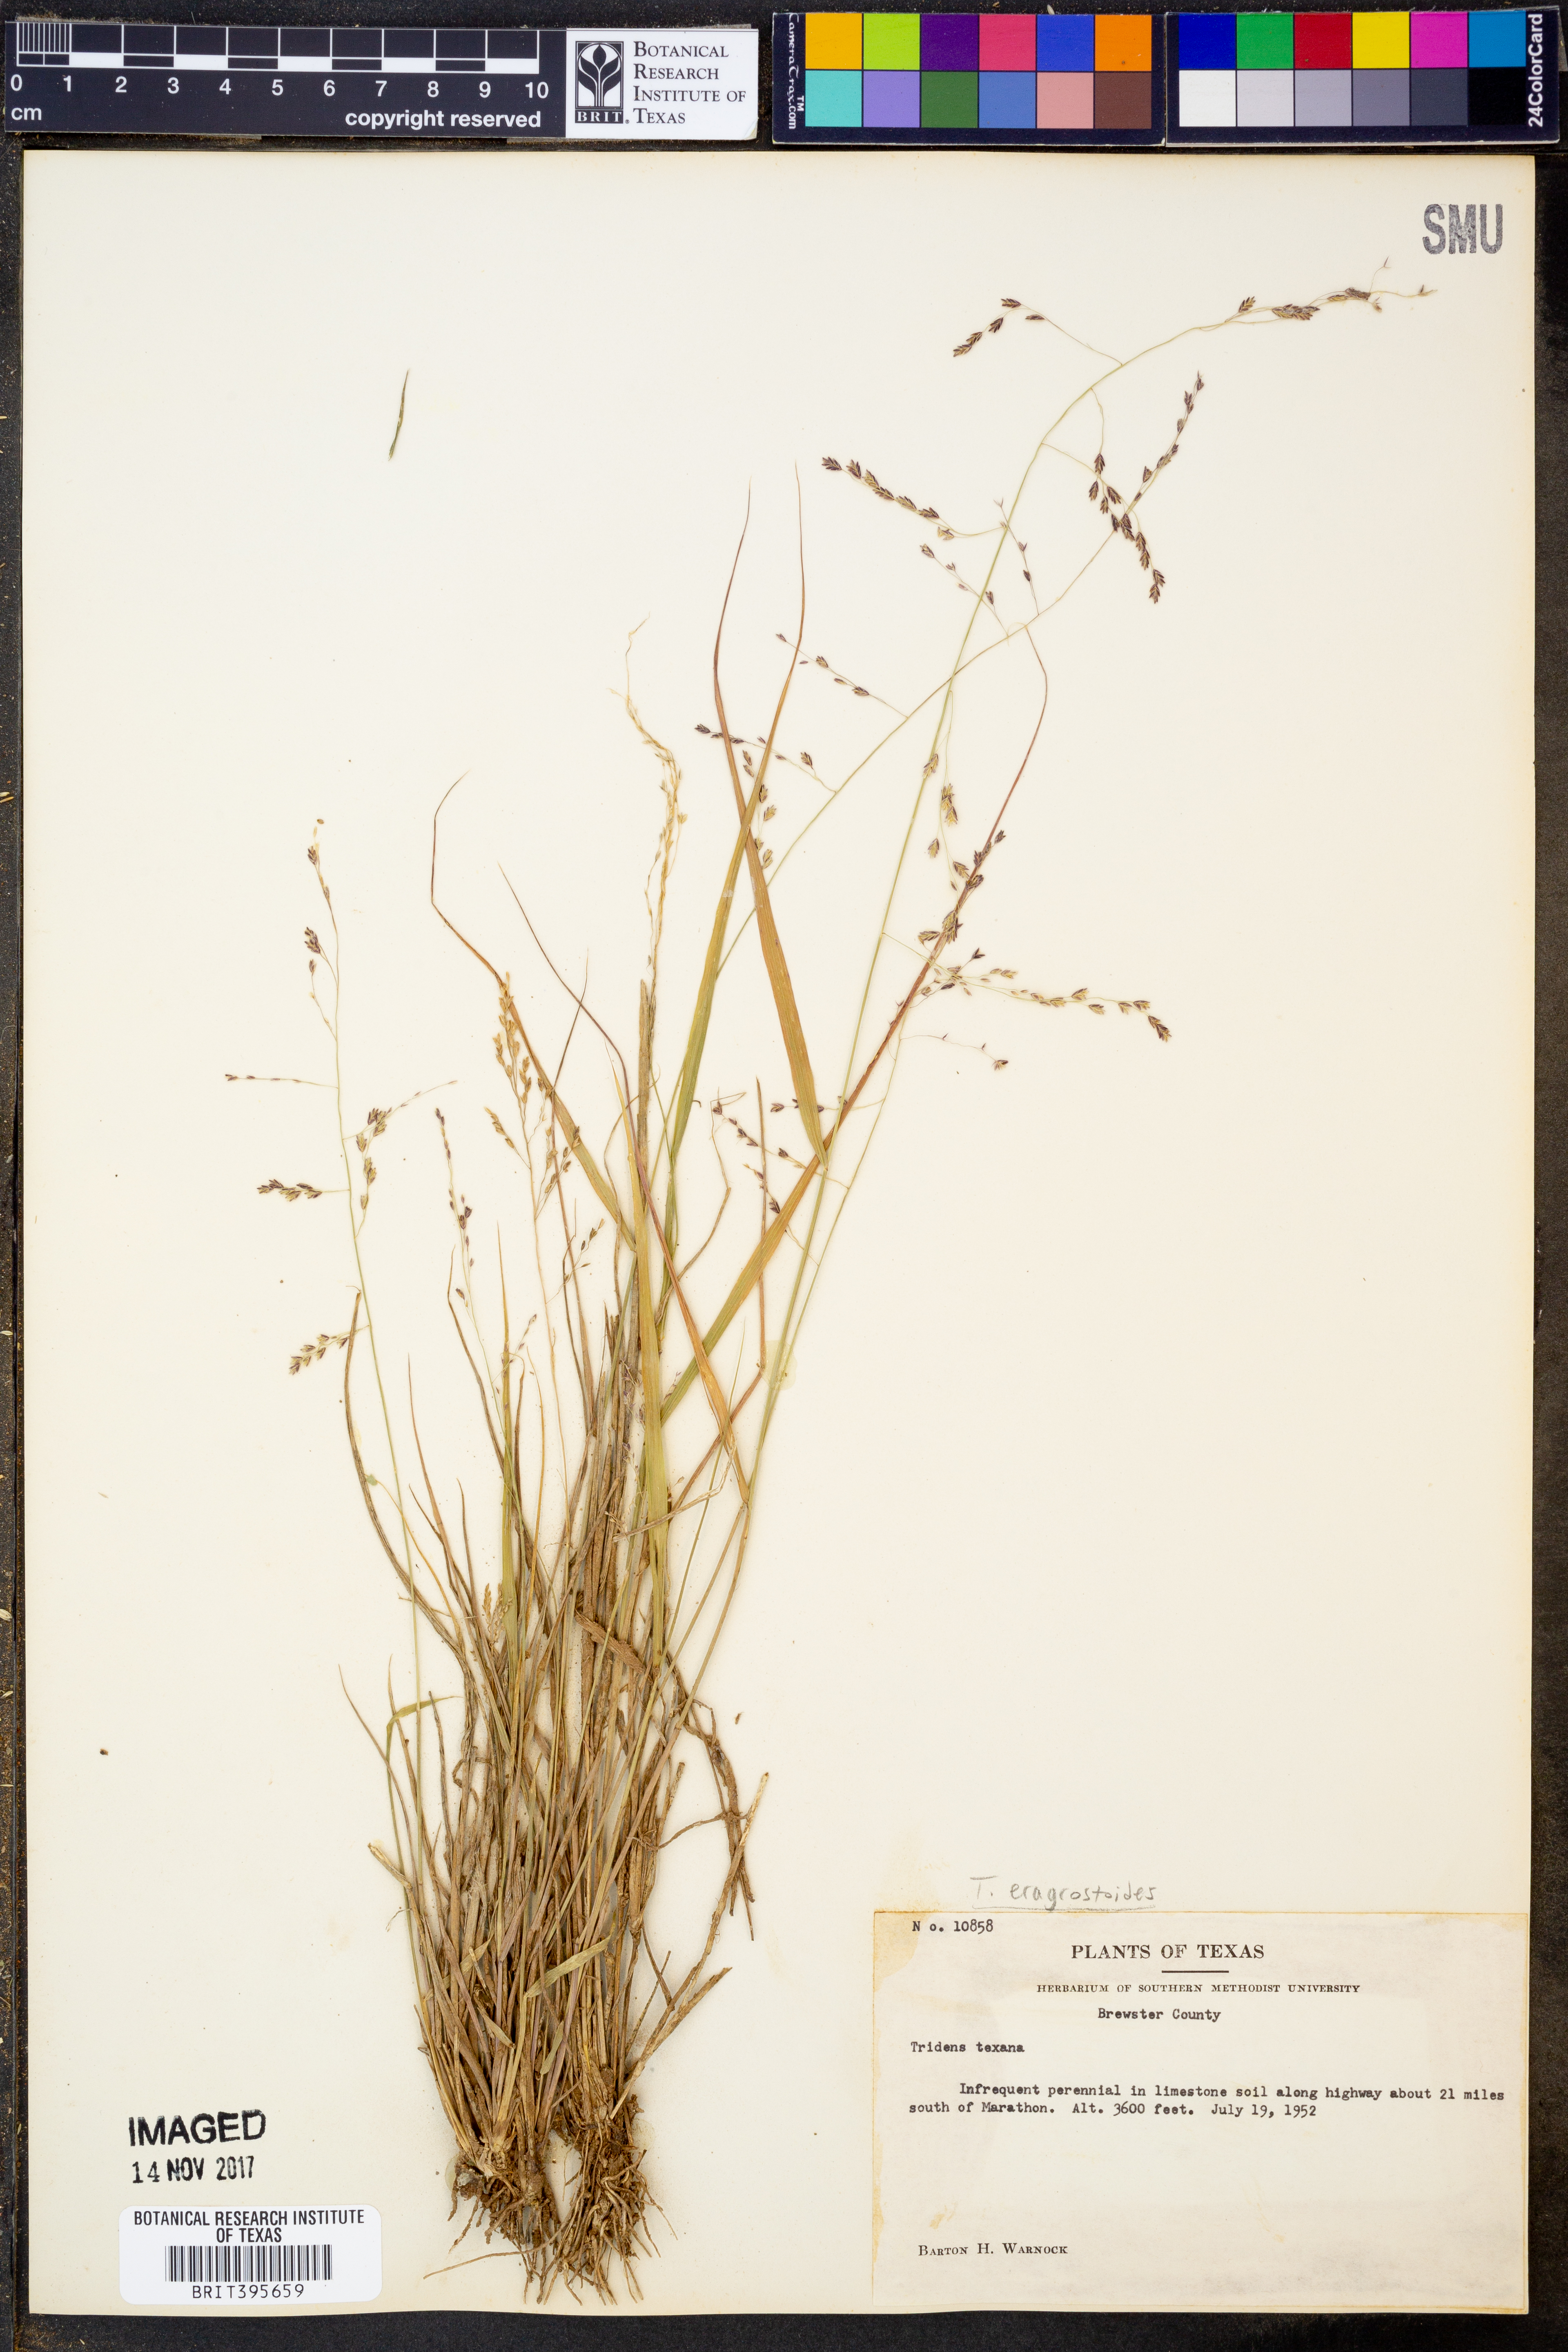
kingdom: Plantae
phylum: Tracheophyta
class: Liliopsida
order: Poales
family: Poaceae
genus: Triplasiella
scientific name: Triplasiella eragrostoides
